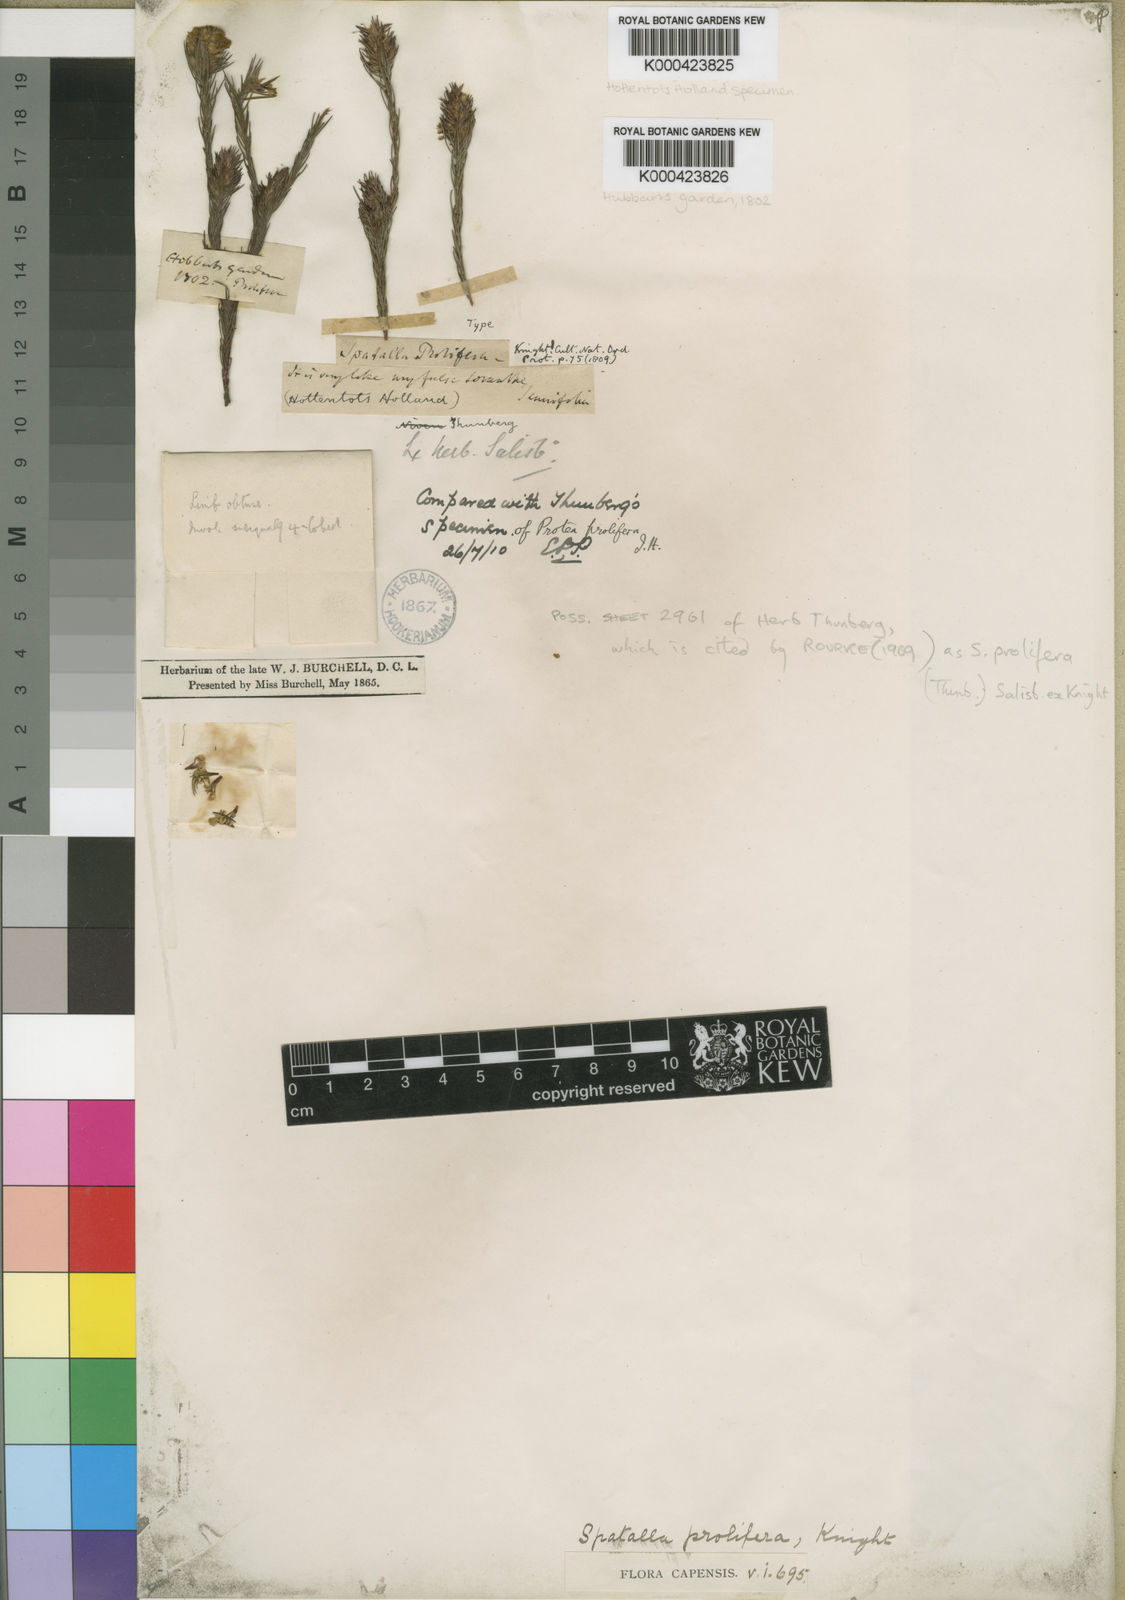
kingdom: Plantae
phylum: Tracheophyta
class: Magnoliopsida
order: Proteales
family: Proteaceae
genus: Spatalla
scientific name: Spatalla prolifera
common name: Palmiet spoon
